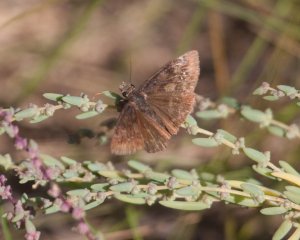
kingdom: Animalia
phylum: Arthropoda
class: Insecta
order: Lepidoptera
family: Hesperiidae
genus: Erynnis
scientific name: Erynnis
